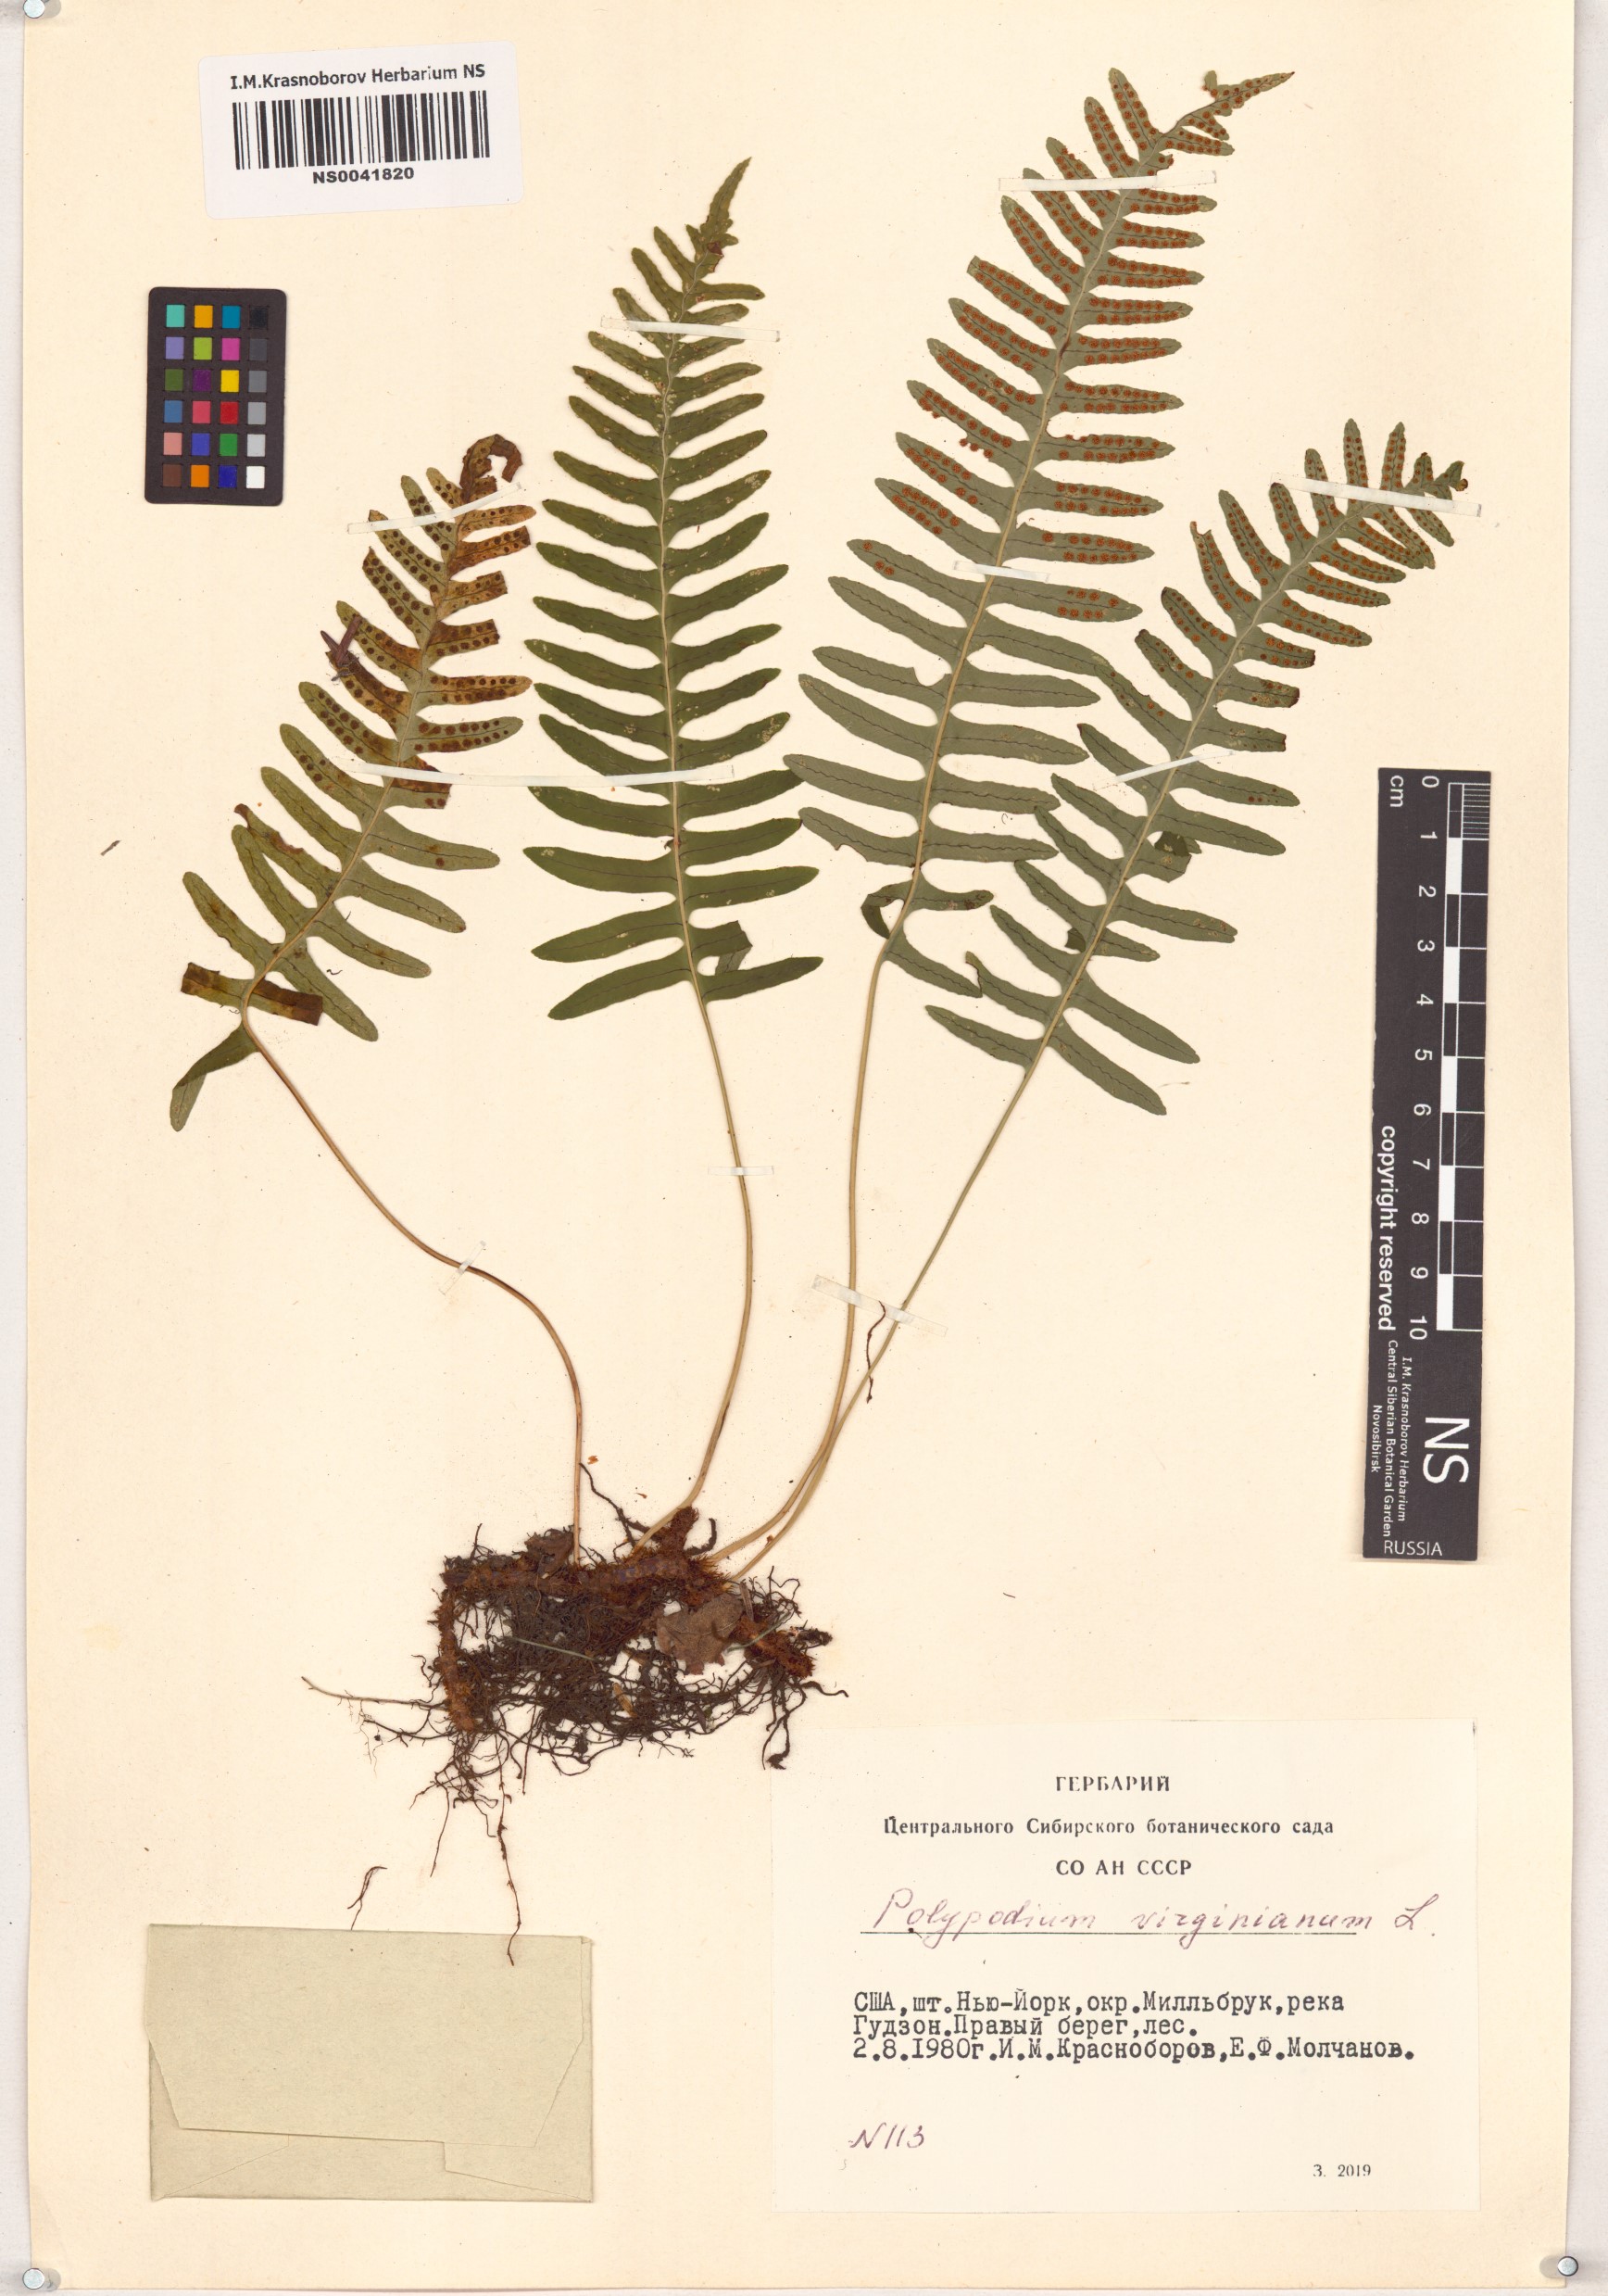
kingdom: Plantae
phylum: Tracheophyta
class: Polypodiopsida
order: Polypodiales
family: Polypodiaceae
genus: Polypodium
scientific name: Polypodium virginianum
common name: American wall fern
